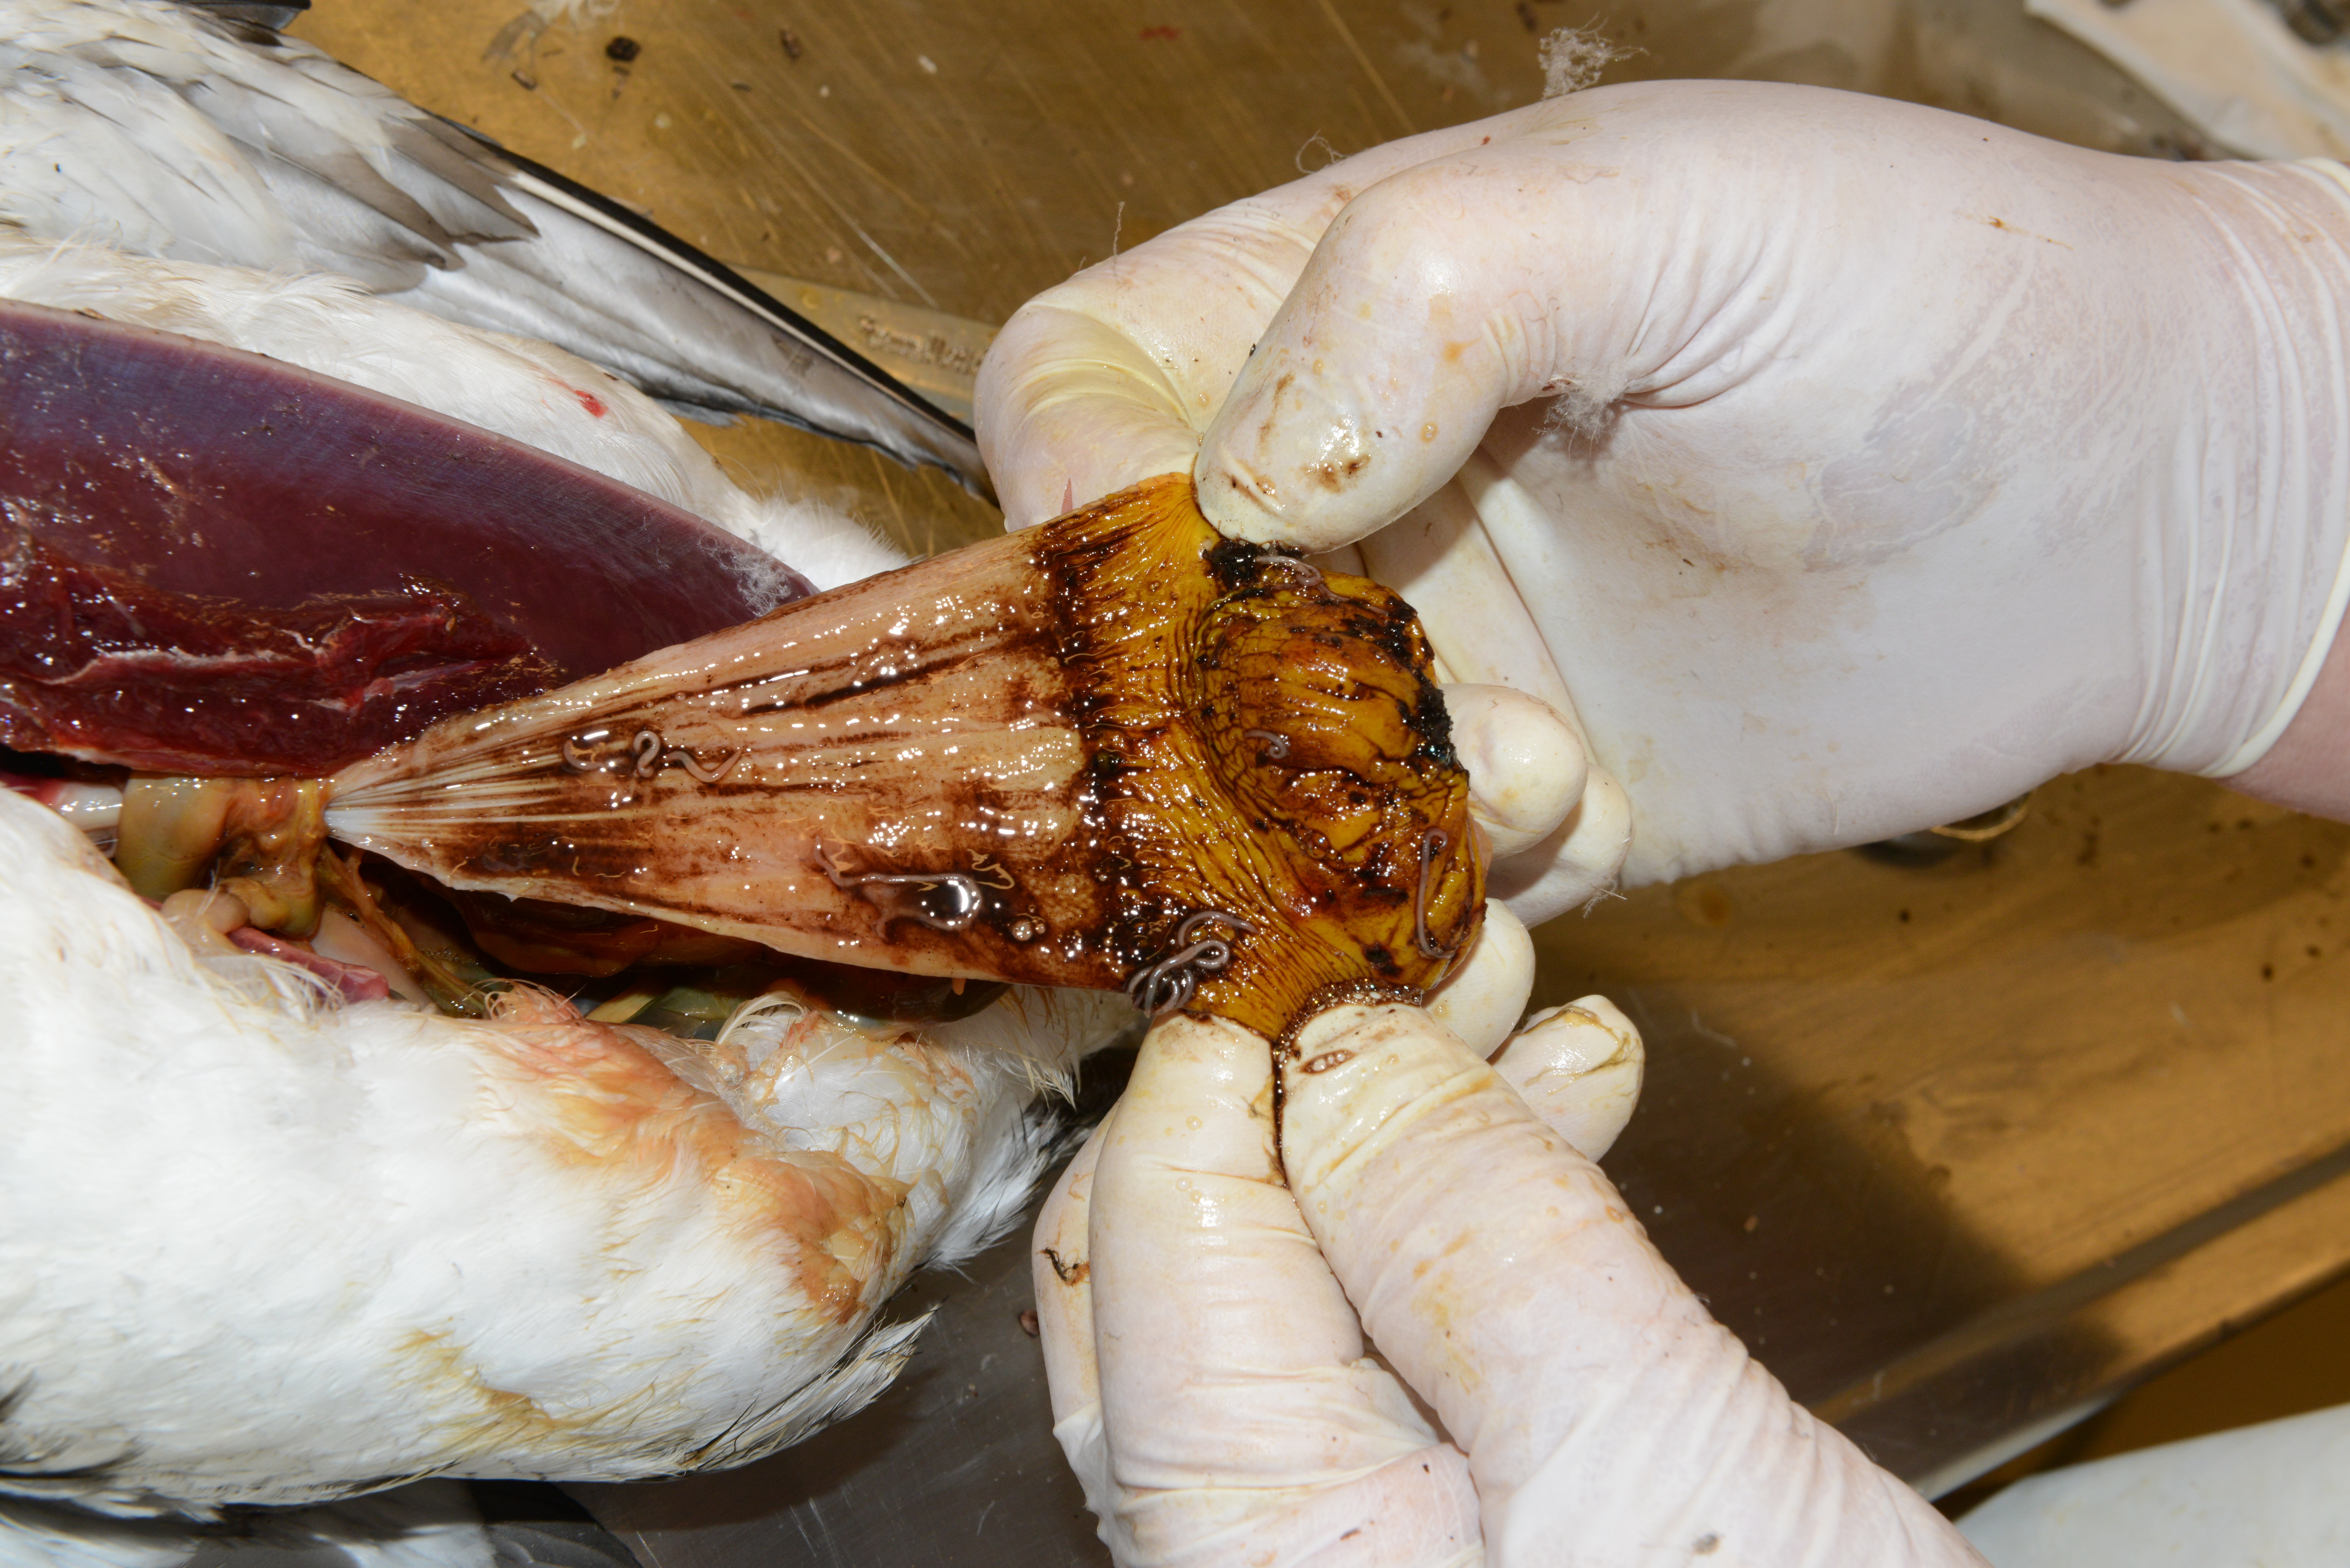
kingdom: Animalia
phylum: Chordata
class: Aves
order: Charadriiformes
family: Alcidae
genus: Uria
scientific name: Uria aalge
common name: Common murre
